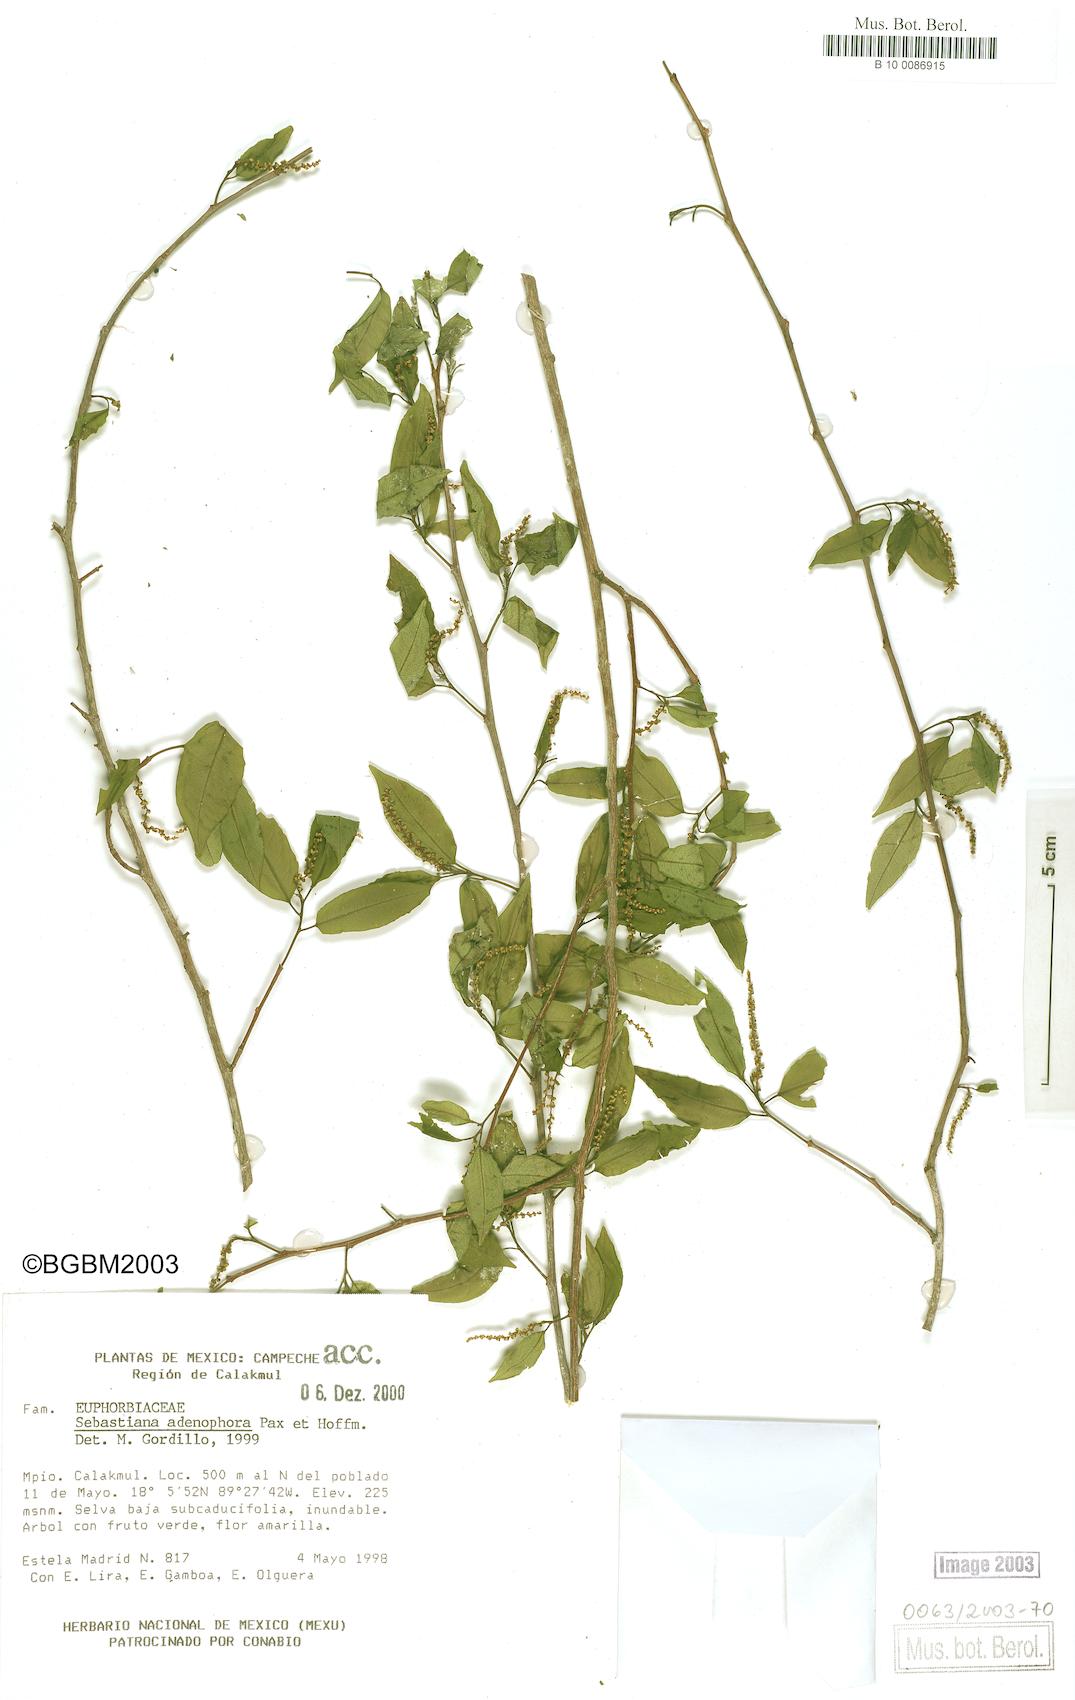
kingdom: Plantae
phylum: Tracheophyta
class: Magnoliopsida
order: Malpighiales
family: Euphorbiaceae
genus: Sebastiania
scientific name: Sebastiania glandulosa
